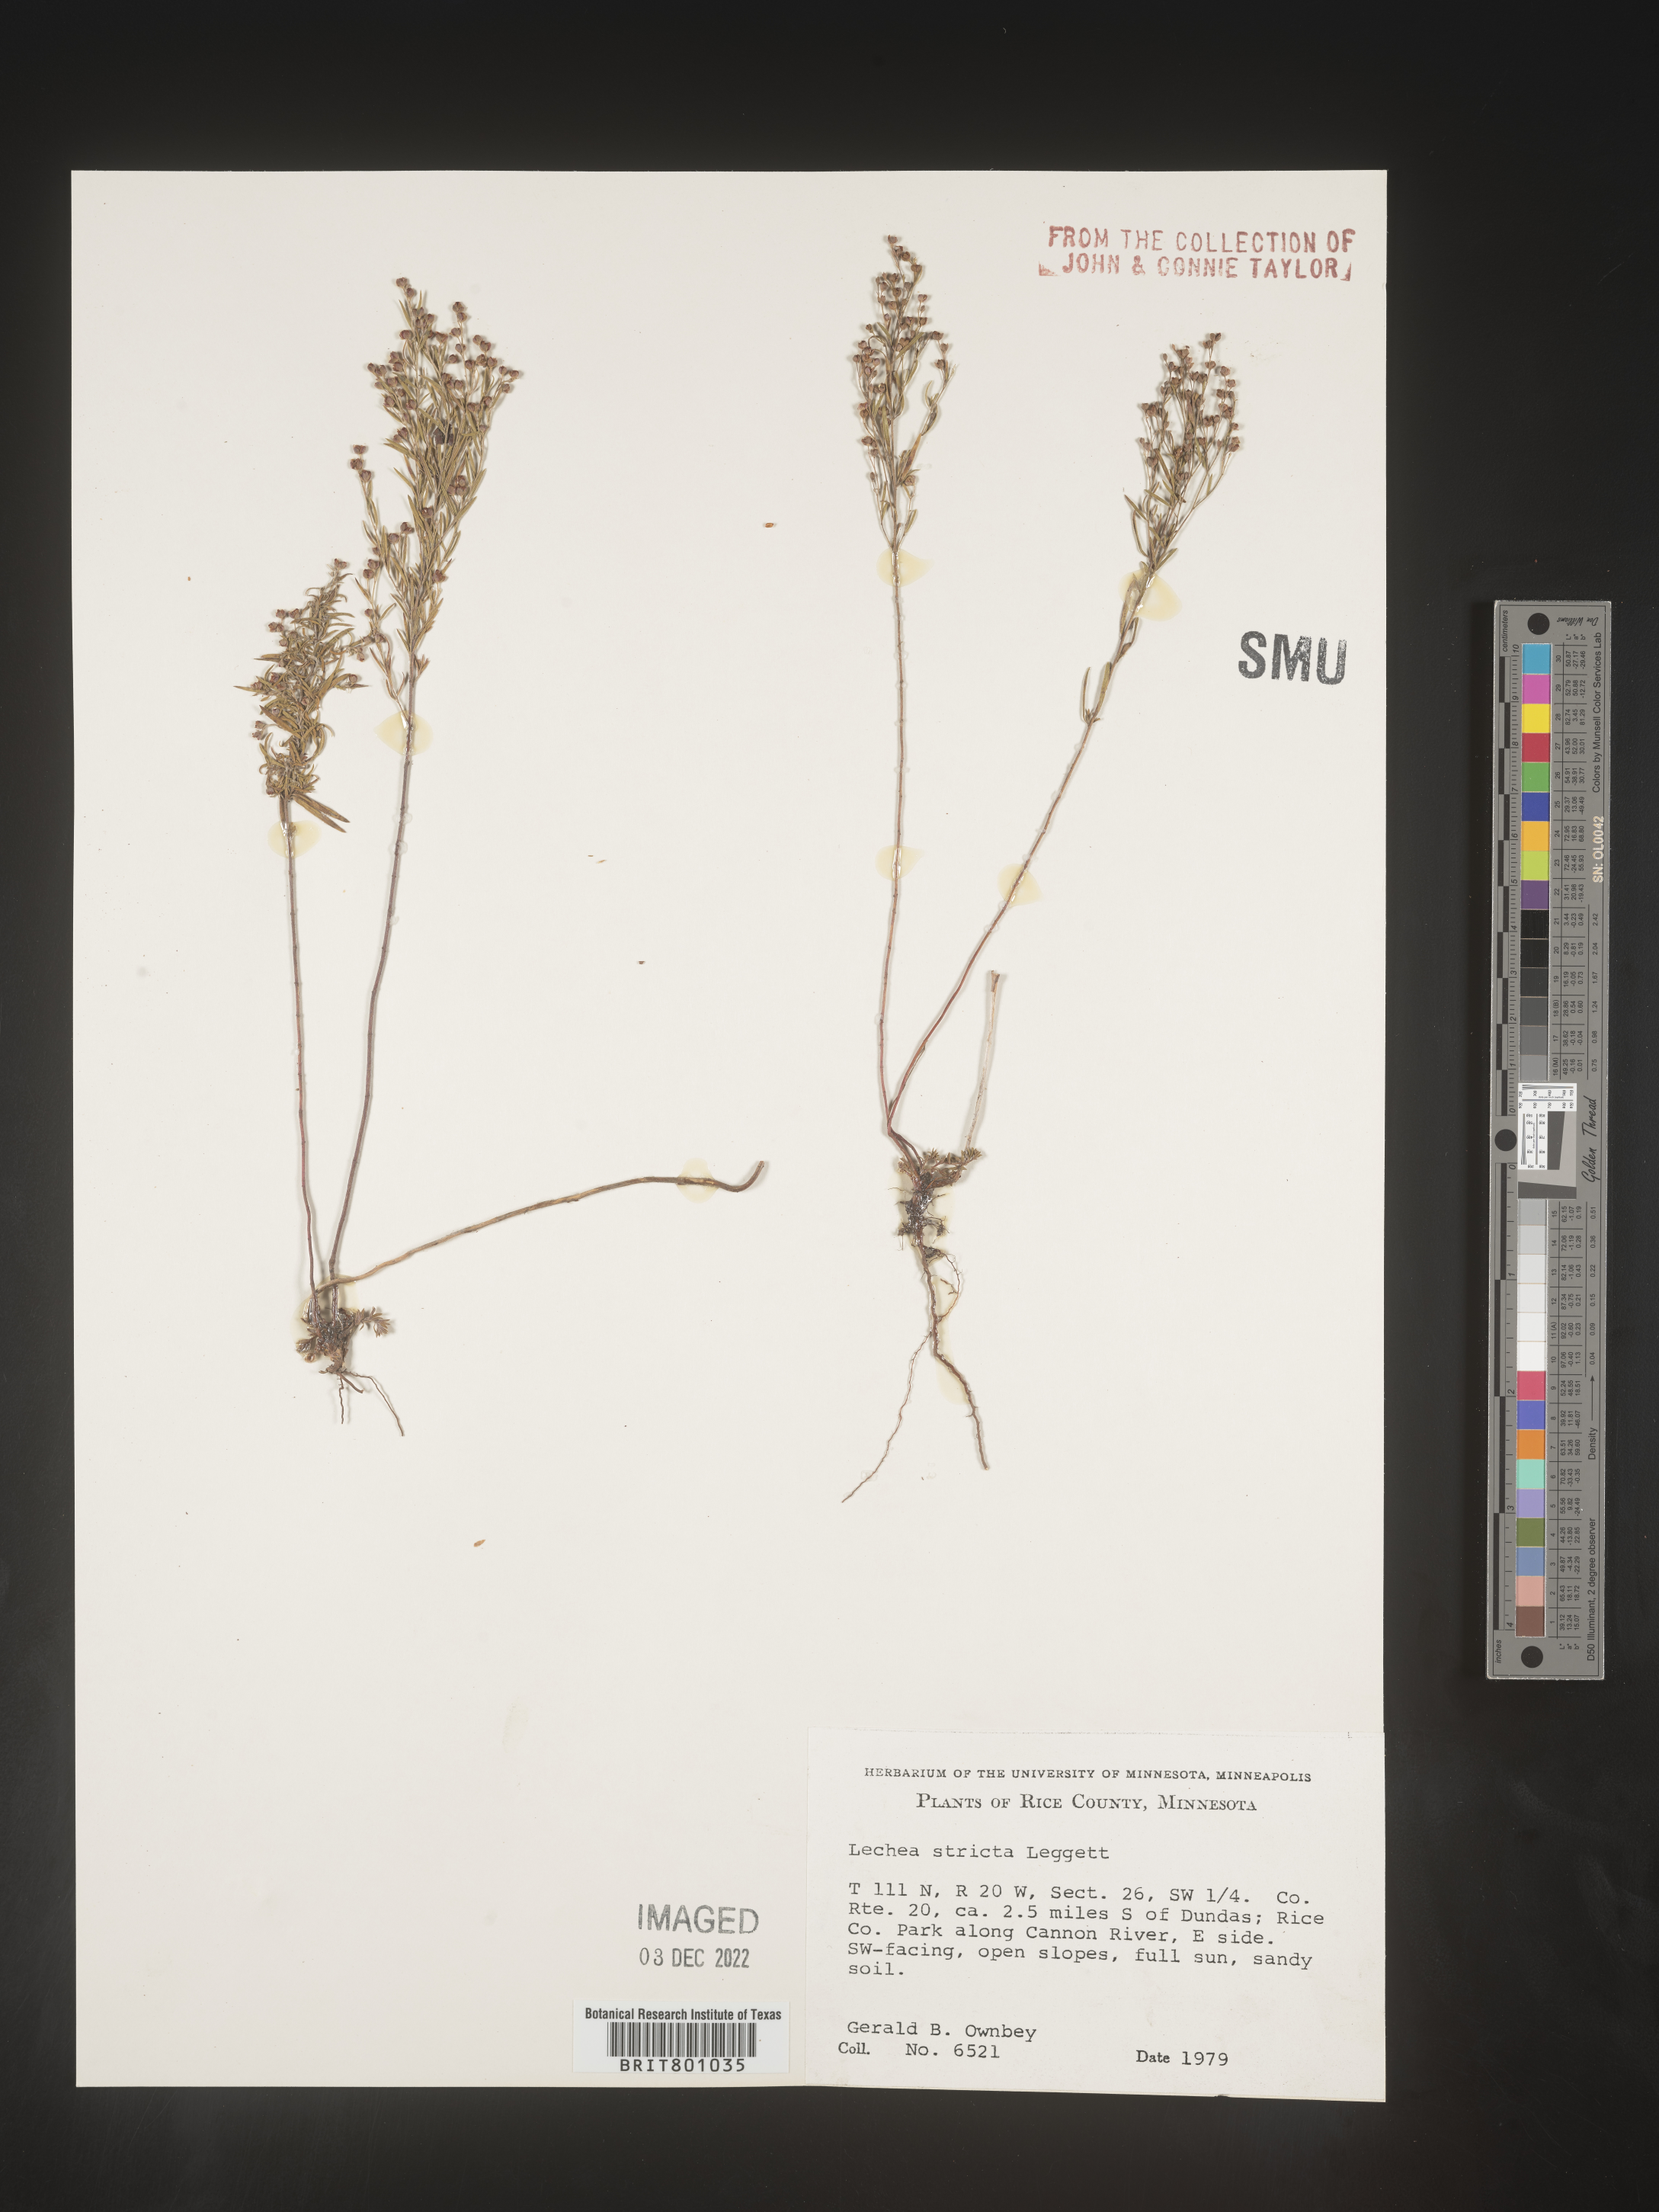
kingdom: Plantae
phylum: Tracheophyta
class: Magnoliopsida
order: Malvales
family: Cistaceae
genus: Lechea
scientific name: Lechea
